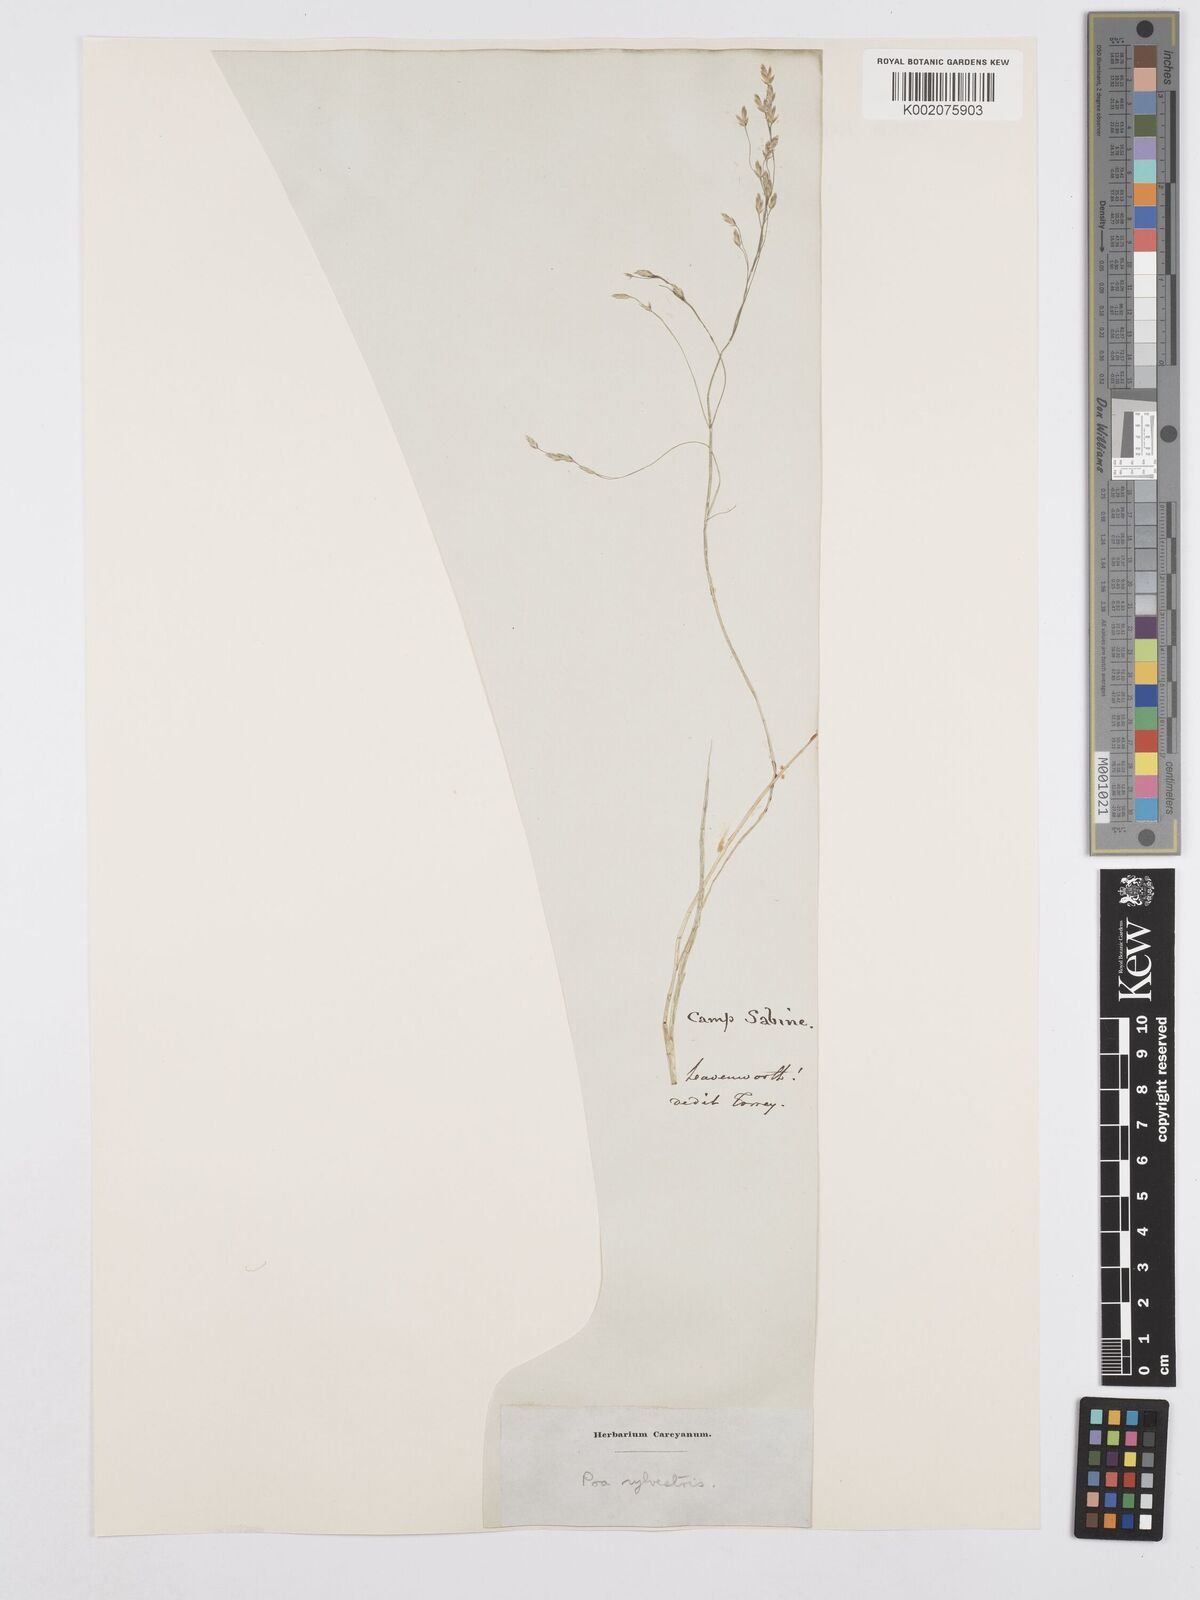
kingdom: Plantae
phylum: Tracheophyta
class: Liliopsida
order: Poales
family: Poaceae
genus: Poa
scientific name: Poa sylvestris
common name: North american woodland bluegrass
